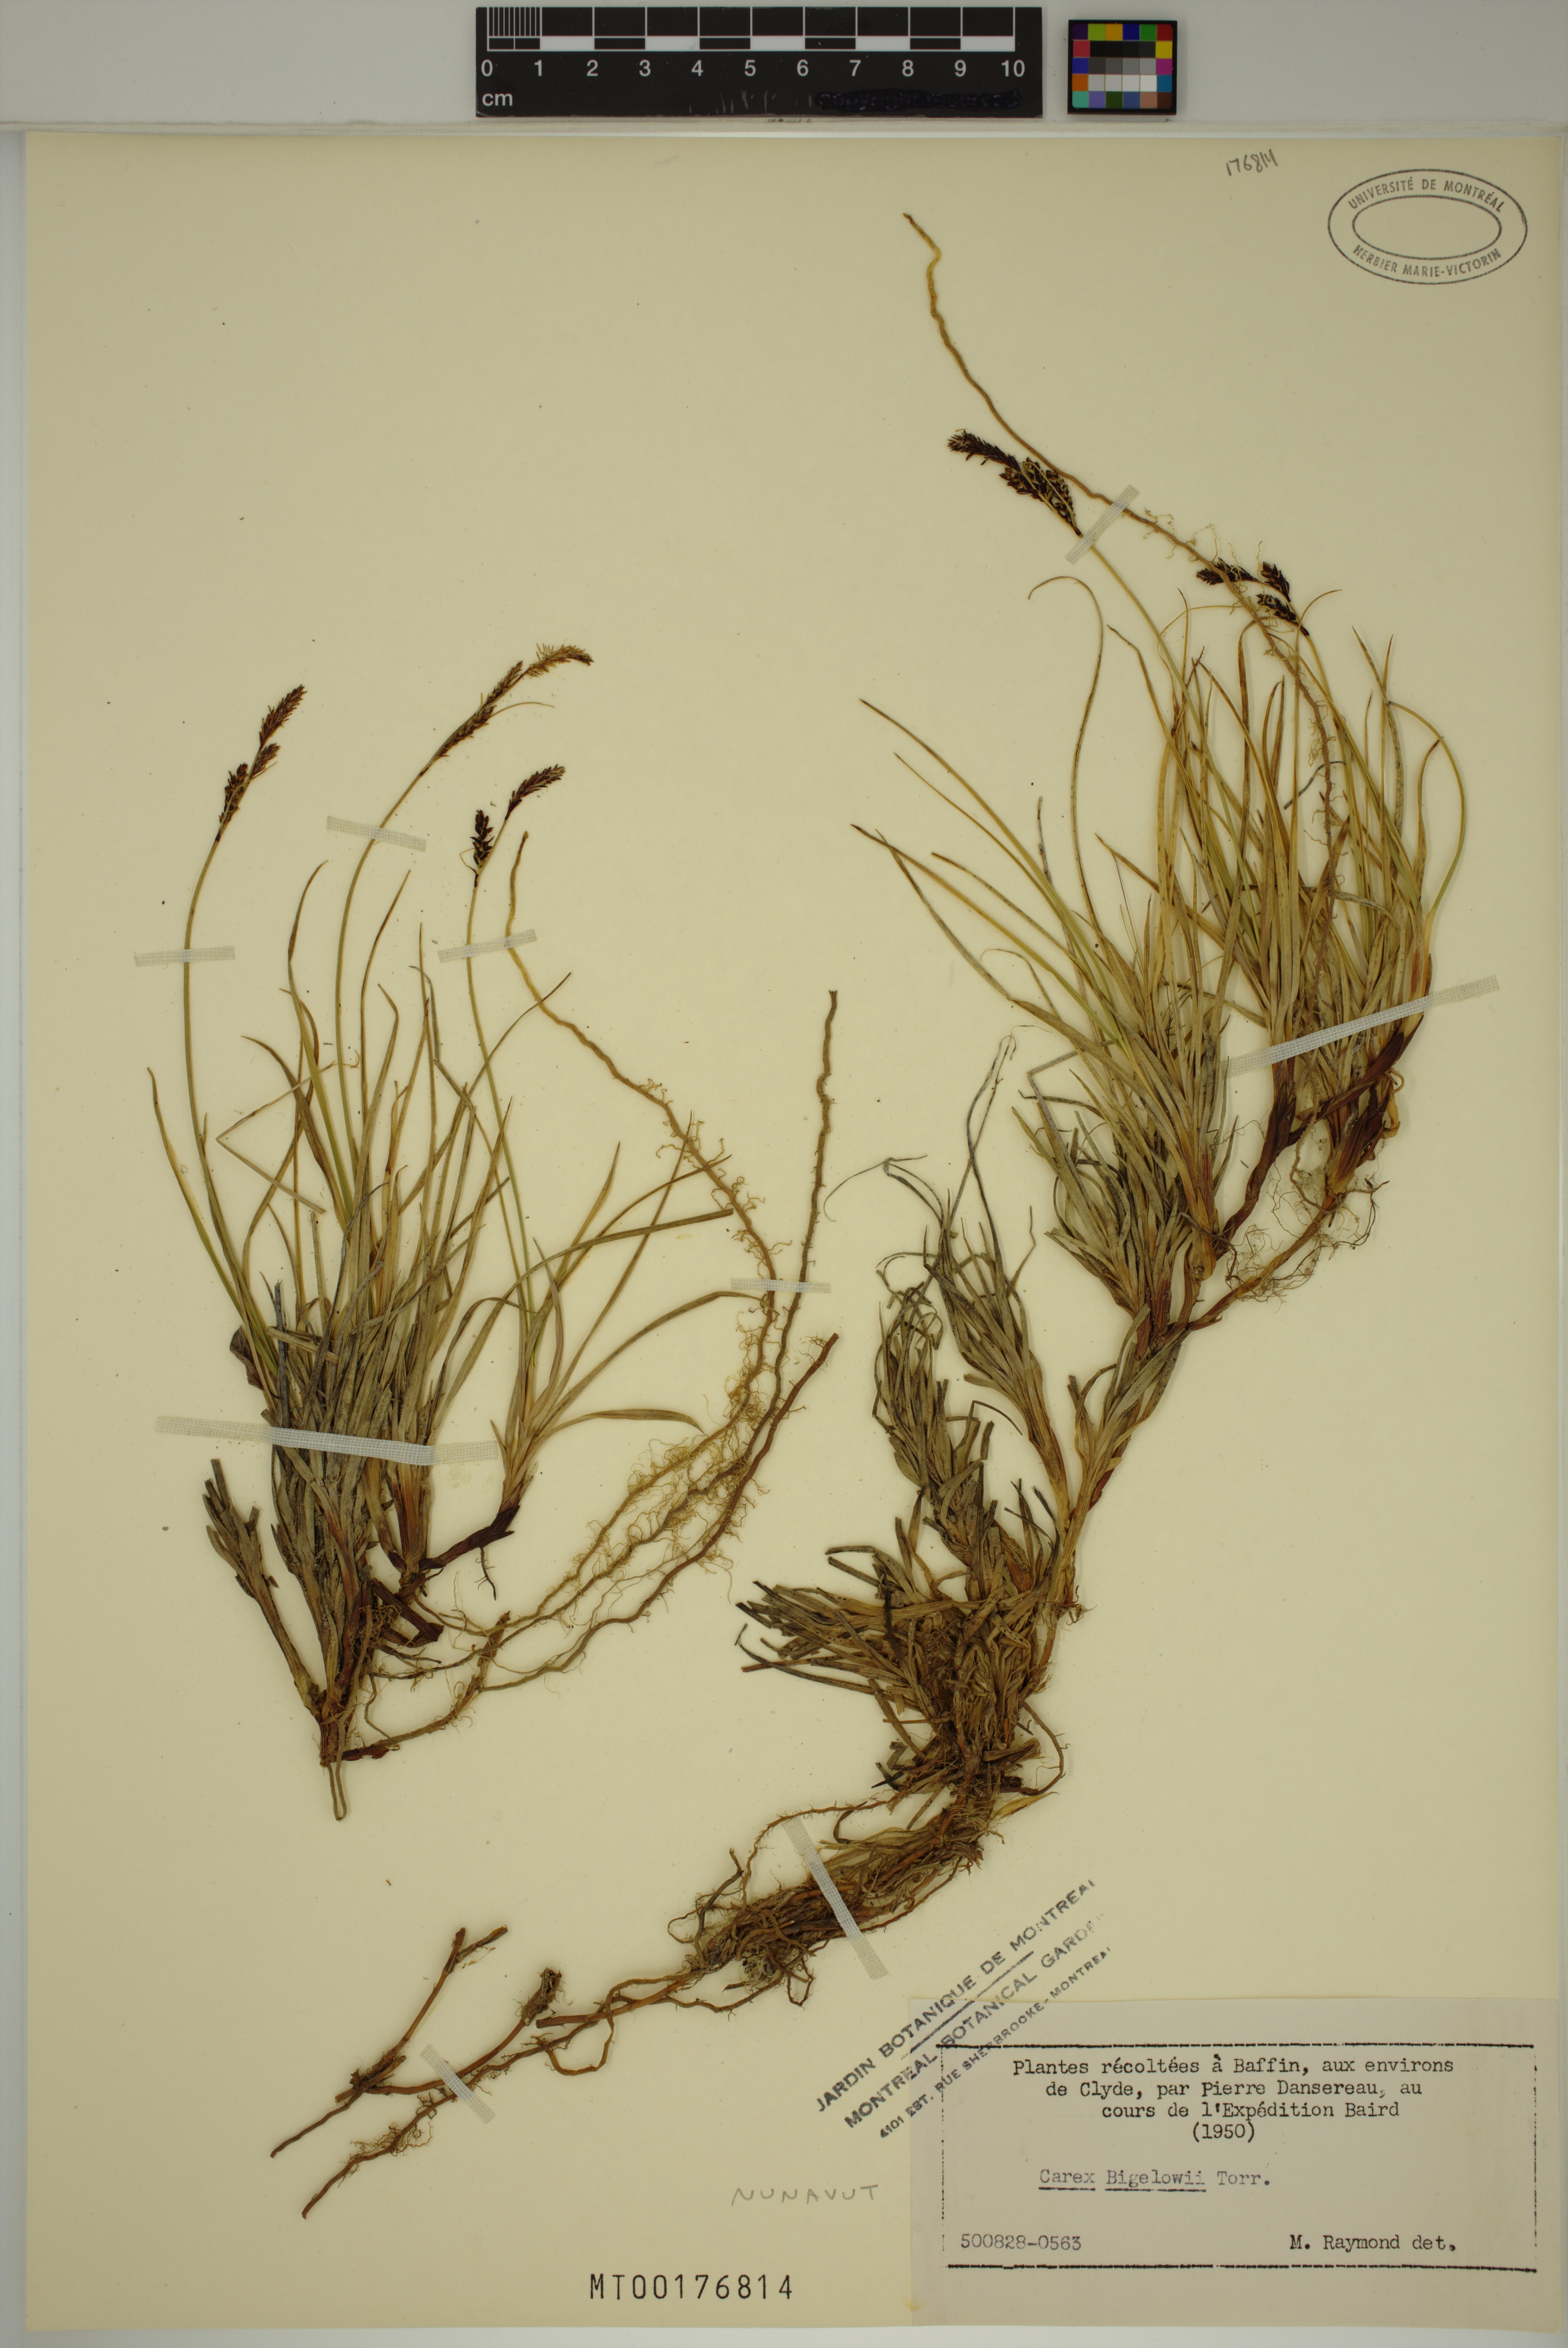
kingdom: Plantae
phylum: Tracheophyta
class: Liliopsida
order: Poales
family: Cyperaceae
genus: Carex
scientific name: Carex bigelowii
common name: Stiff sedge
